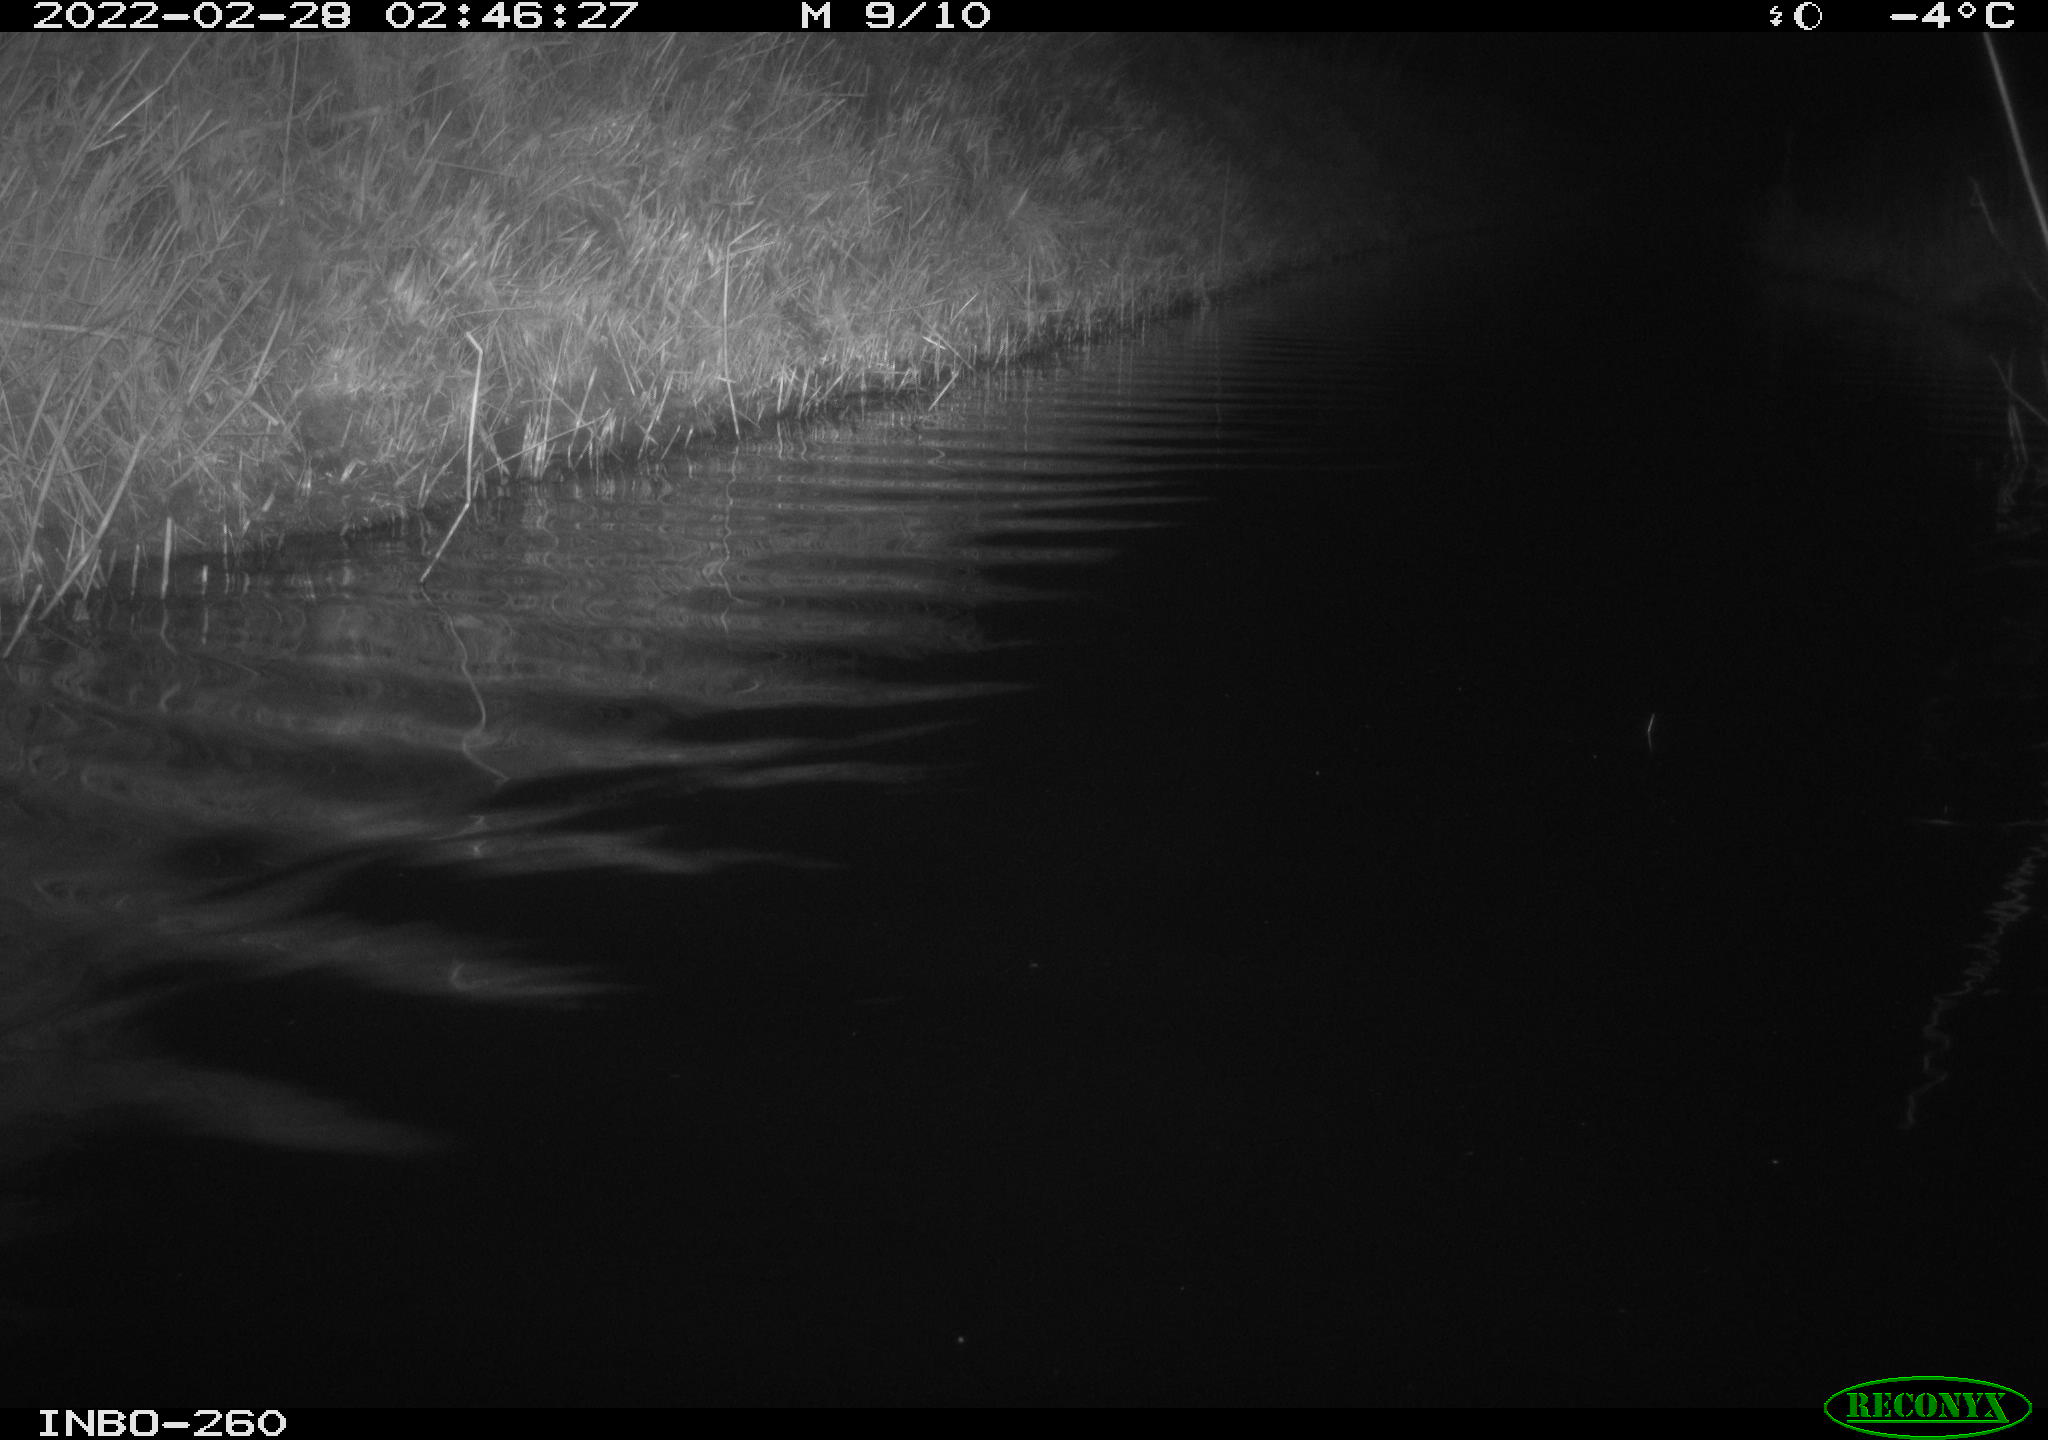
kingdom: Animalia
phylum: Chordata
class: Mammalia
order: Rodentia
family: Cricetidae
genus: Ondatra
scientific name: Ondatra zibethicus
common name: Muskrat
